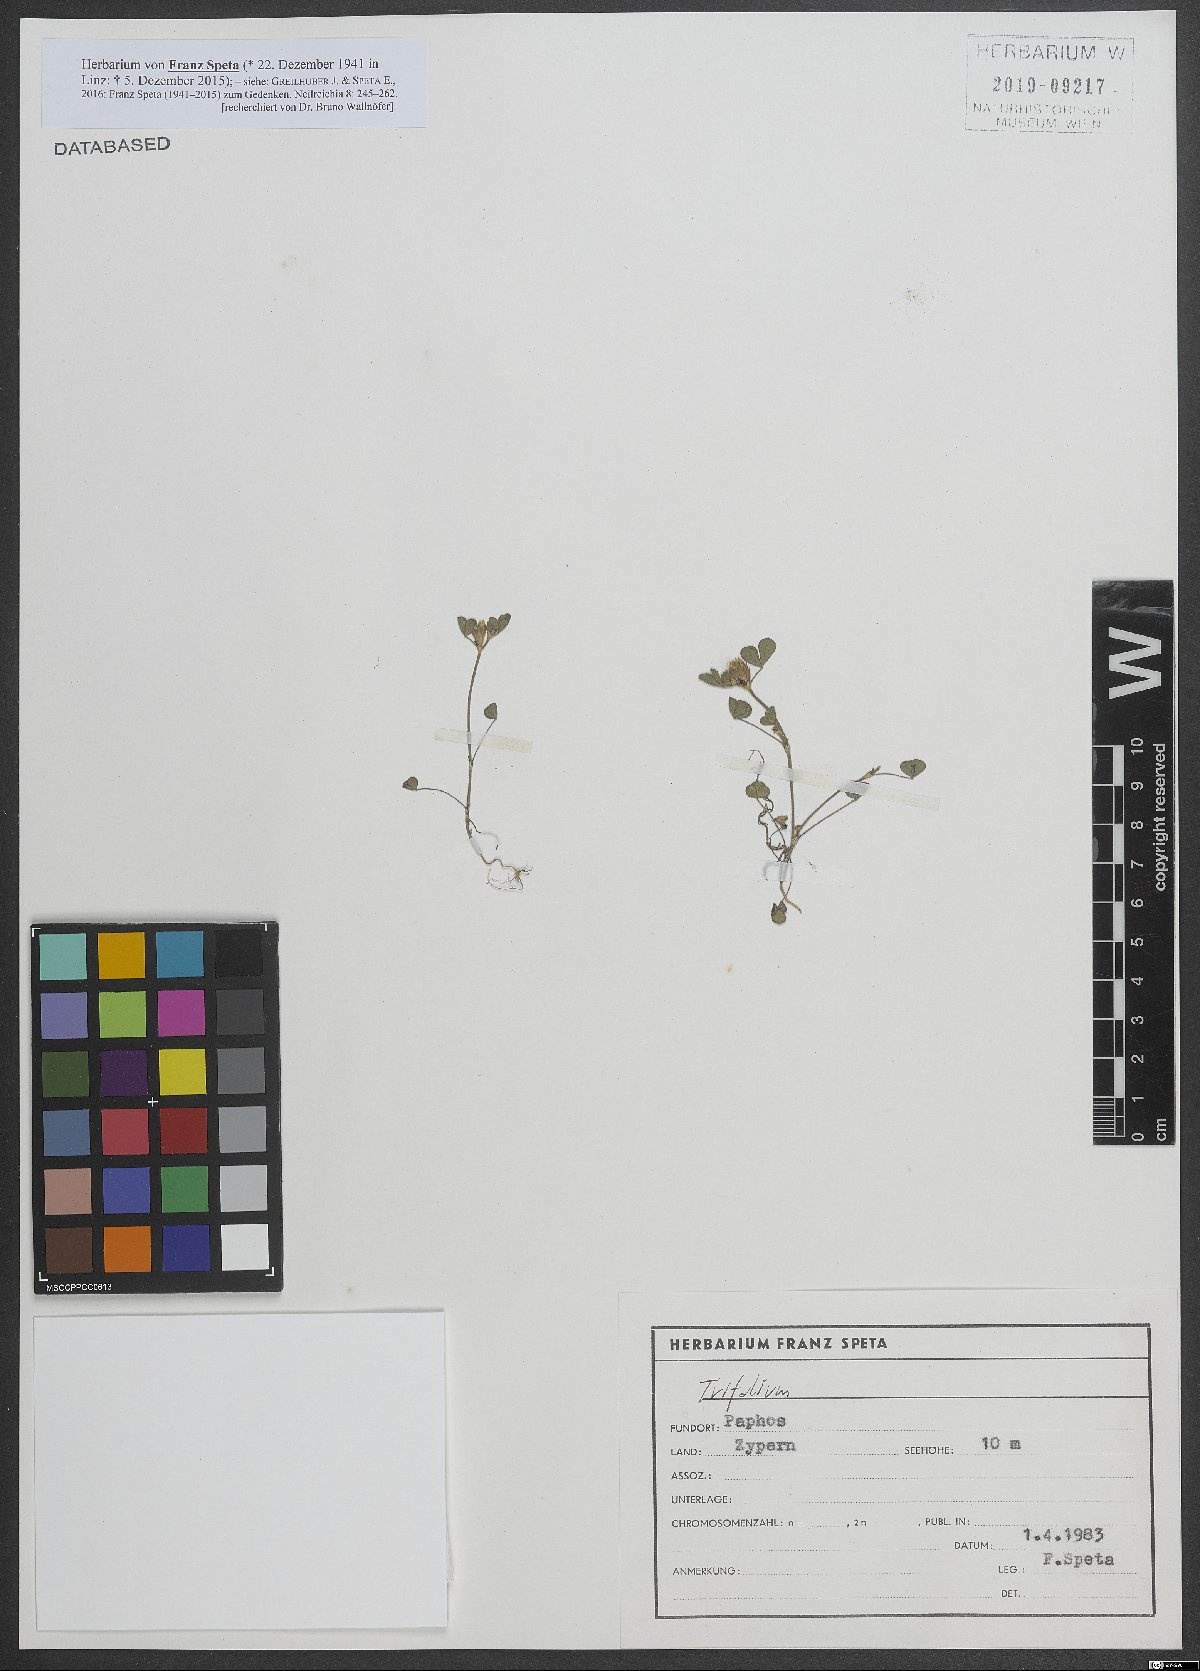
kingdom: Plantae
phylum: Tracheophyta
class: Magnoliopsida
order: Fabales
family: Fabaceae
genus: Trifolium
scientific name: Trifolium scabrum
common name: Rough clover
